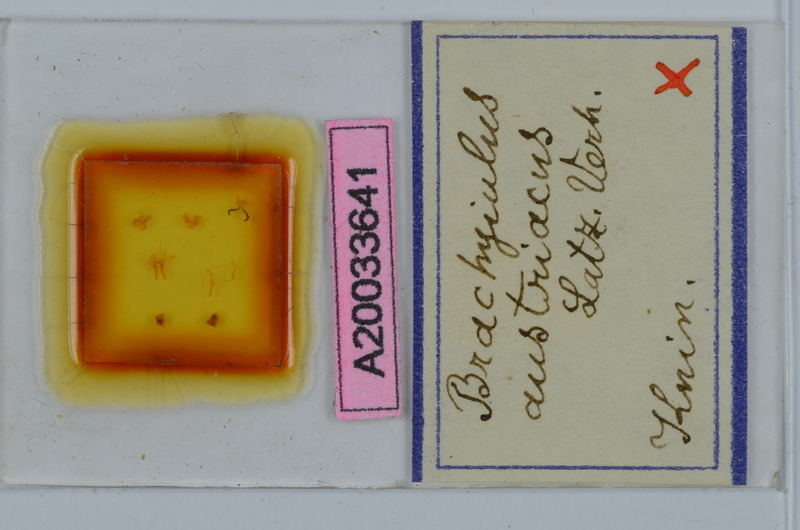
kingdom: Animalia
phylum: Arthropoda
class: Diplopoda
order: Julida
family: Julidae
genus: Brachyiulus
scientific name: Brachyiulus austriacus
